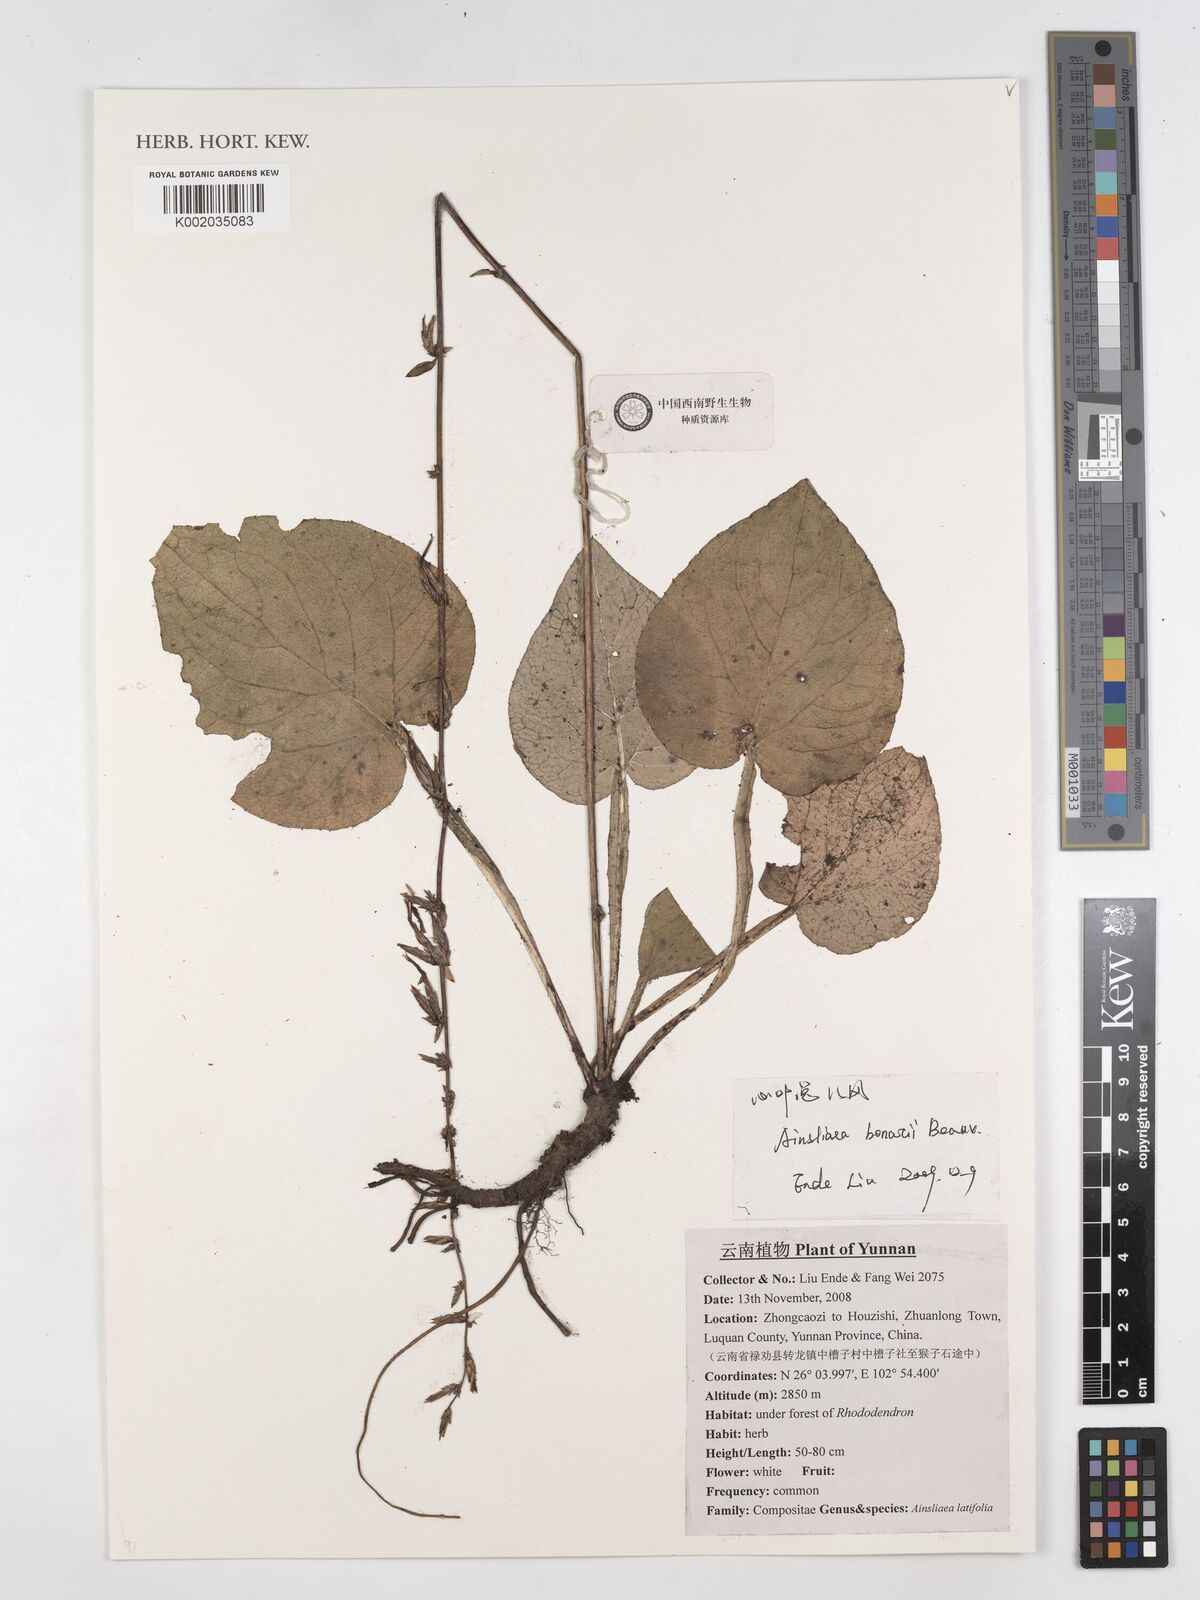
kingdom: Plantae
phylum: Tracheophyta
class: Magnoliopsida
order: Asterales
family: Asteraceae
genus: Ainsliaea
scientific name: Ainsliaea bonatii
